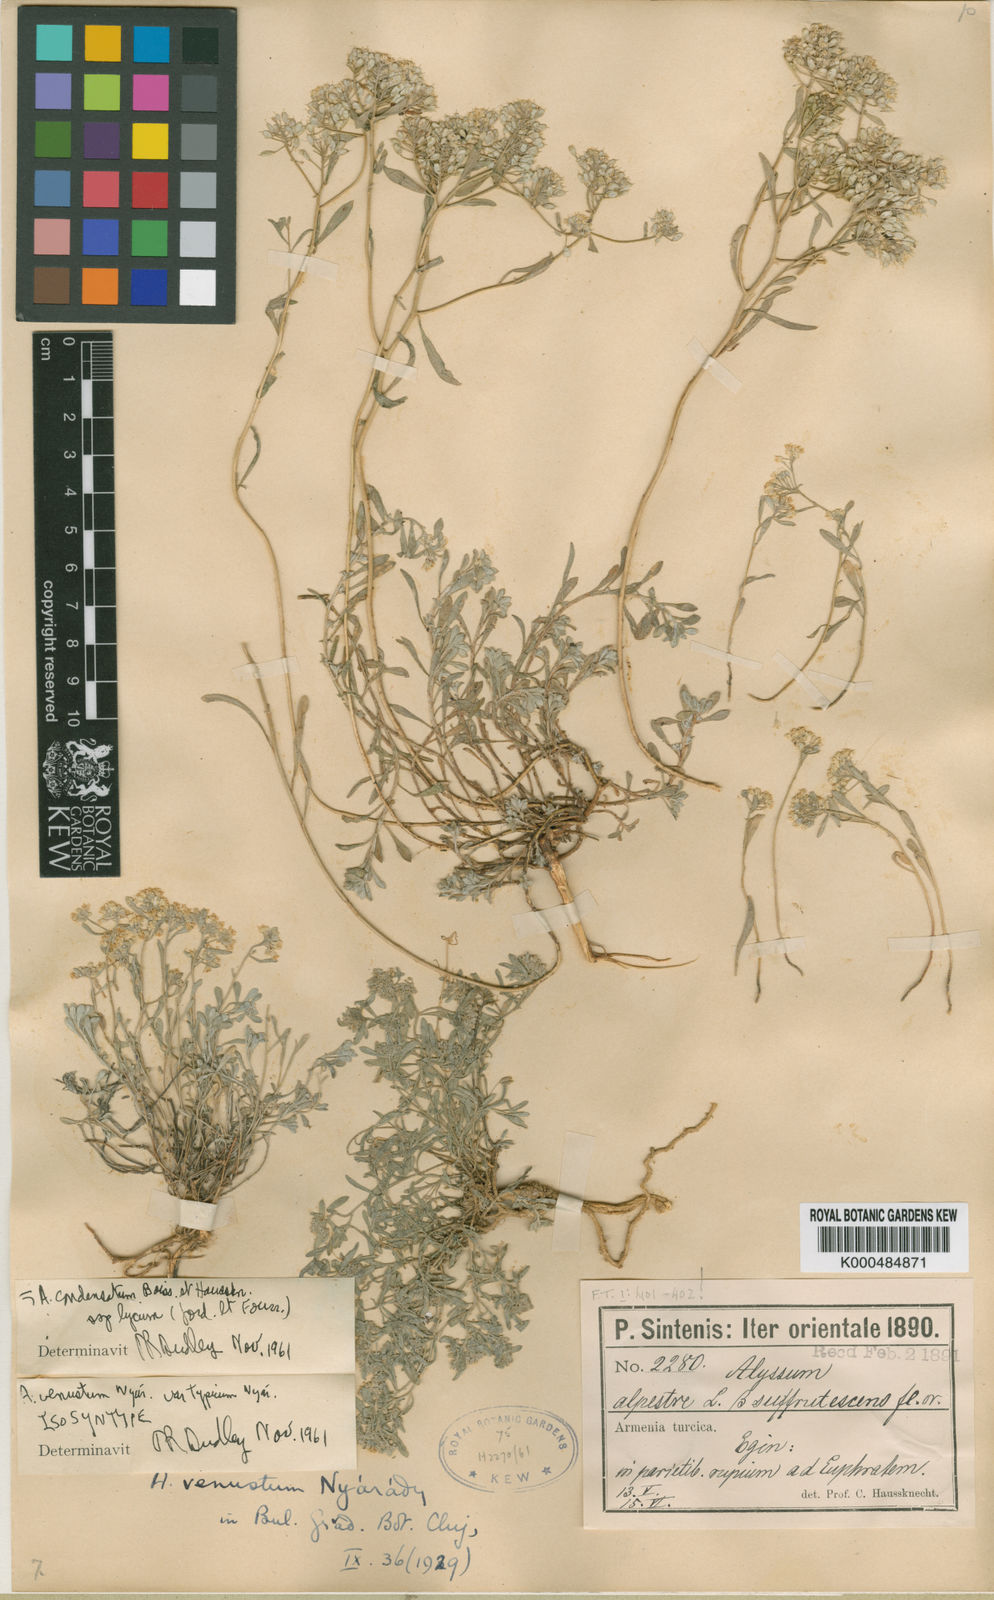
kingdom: Plantae
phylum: Tracheophyta
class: Magnoliopsida
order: Brassicales
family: Brassicaceae
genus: Odontarrhena
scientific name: Odontarrhena condensata
